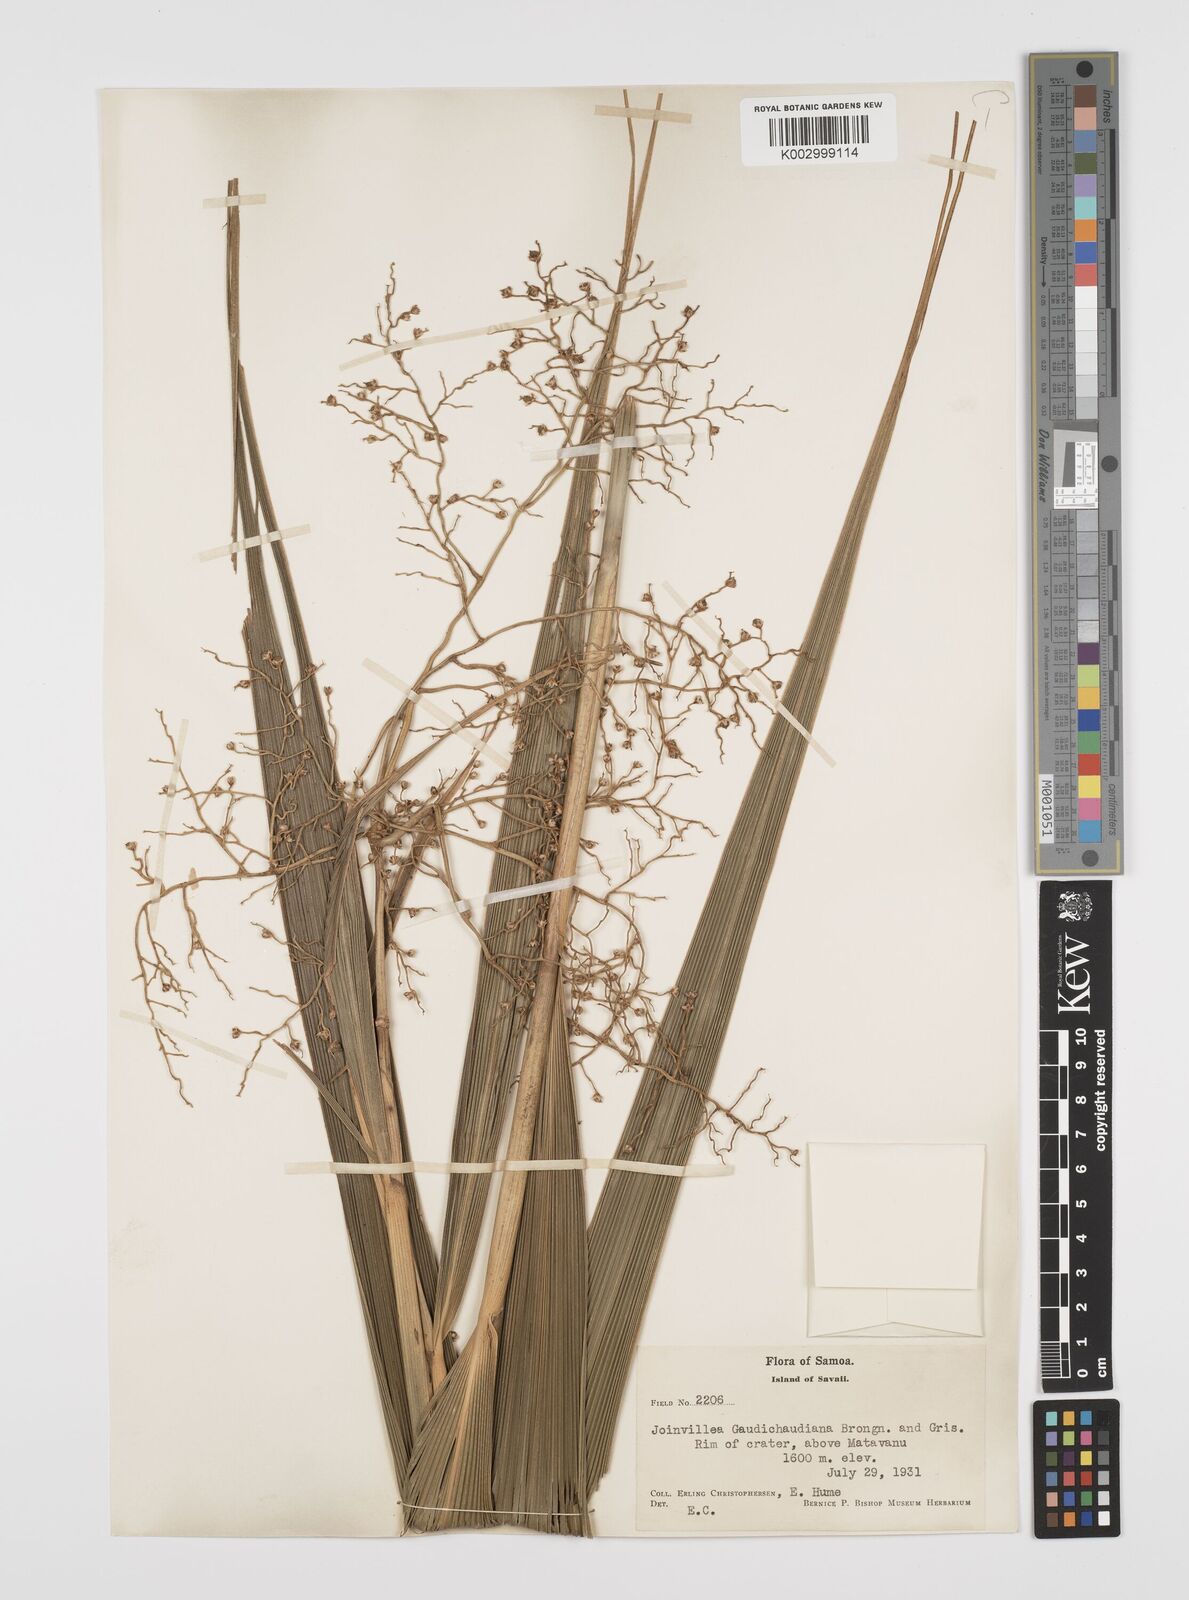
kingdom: Plantae
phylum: Tracheophyta
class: Liliopsida
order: Poales
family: Joinvilleaceae
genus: Joinvillea
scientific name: Joinvillea bryanii
